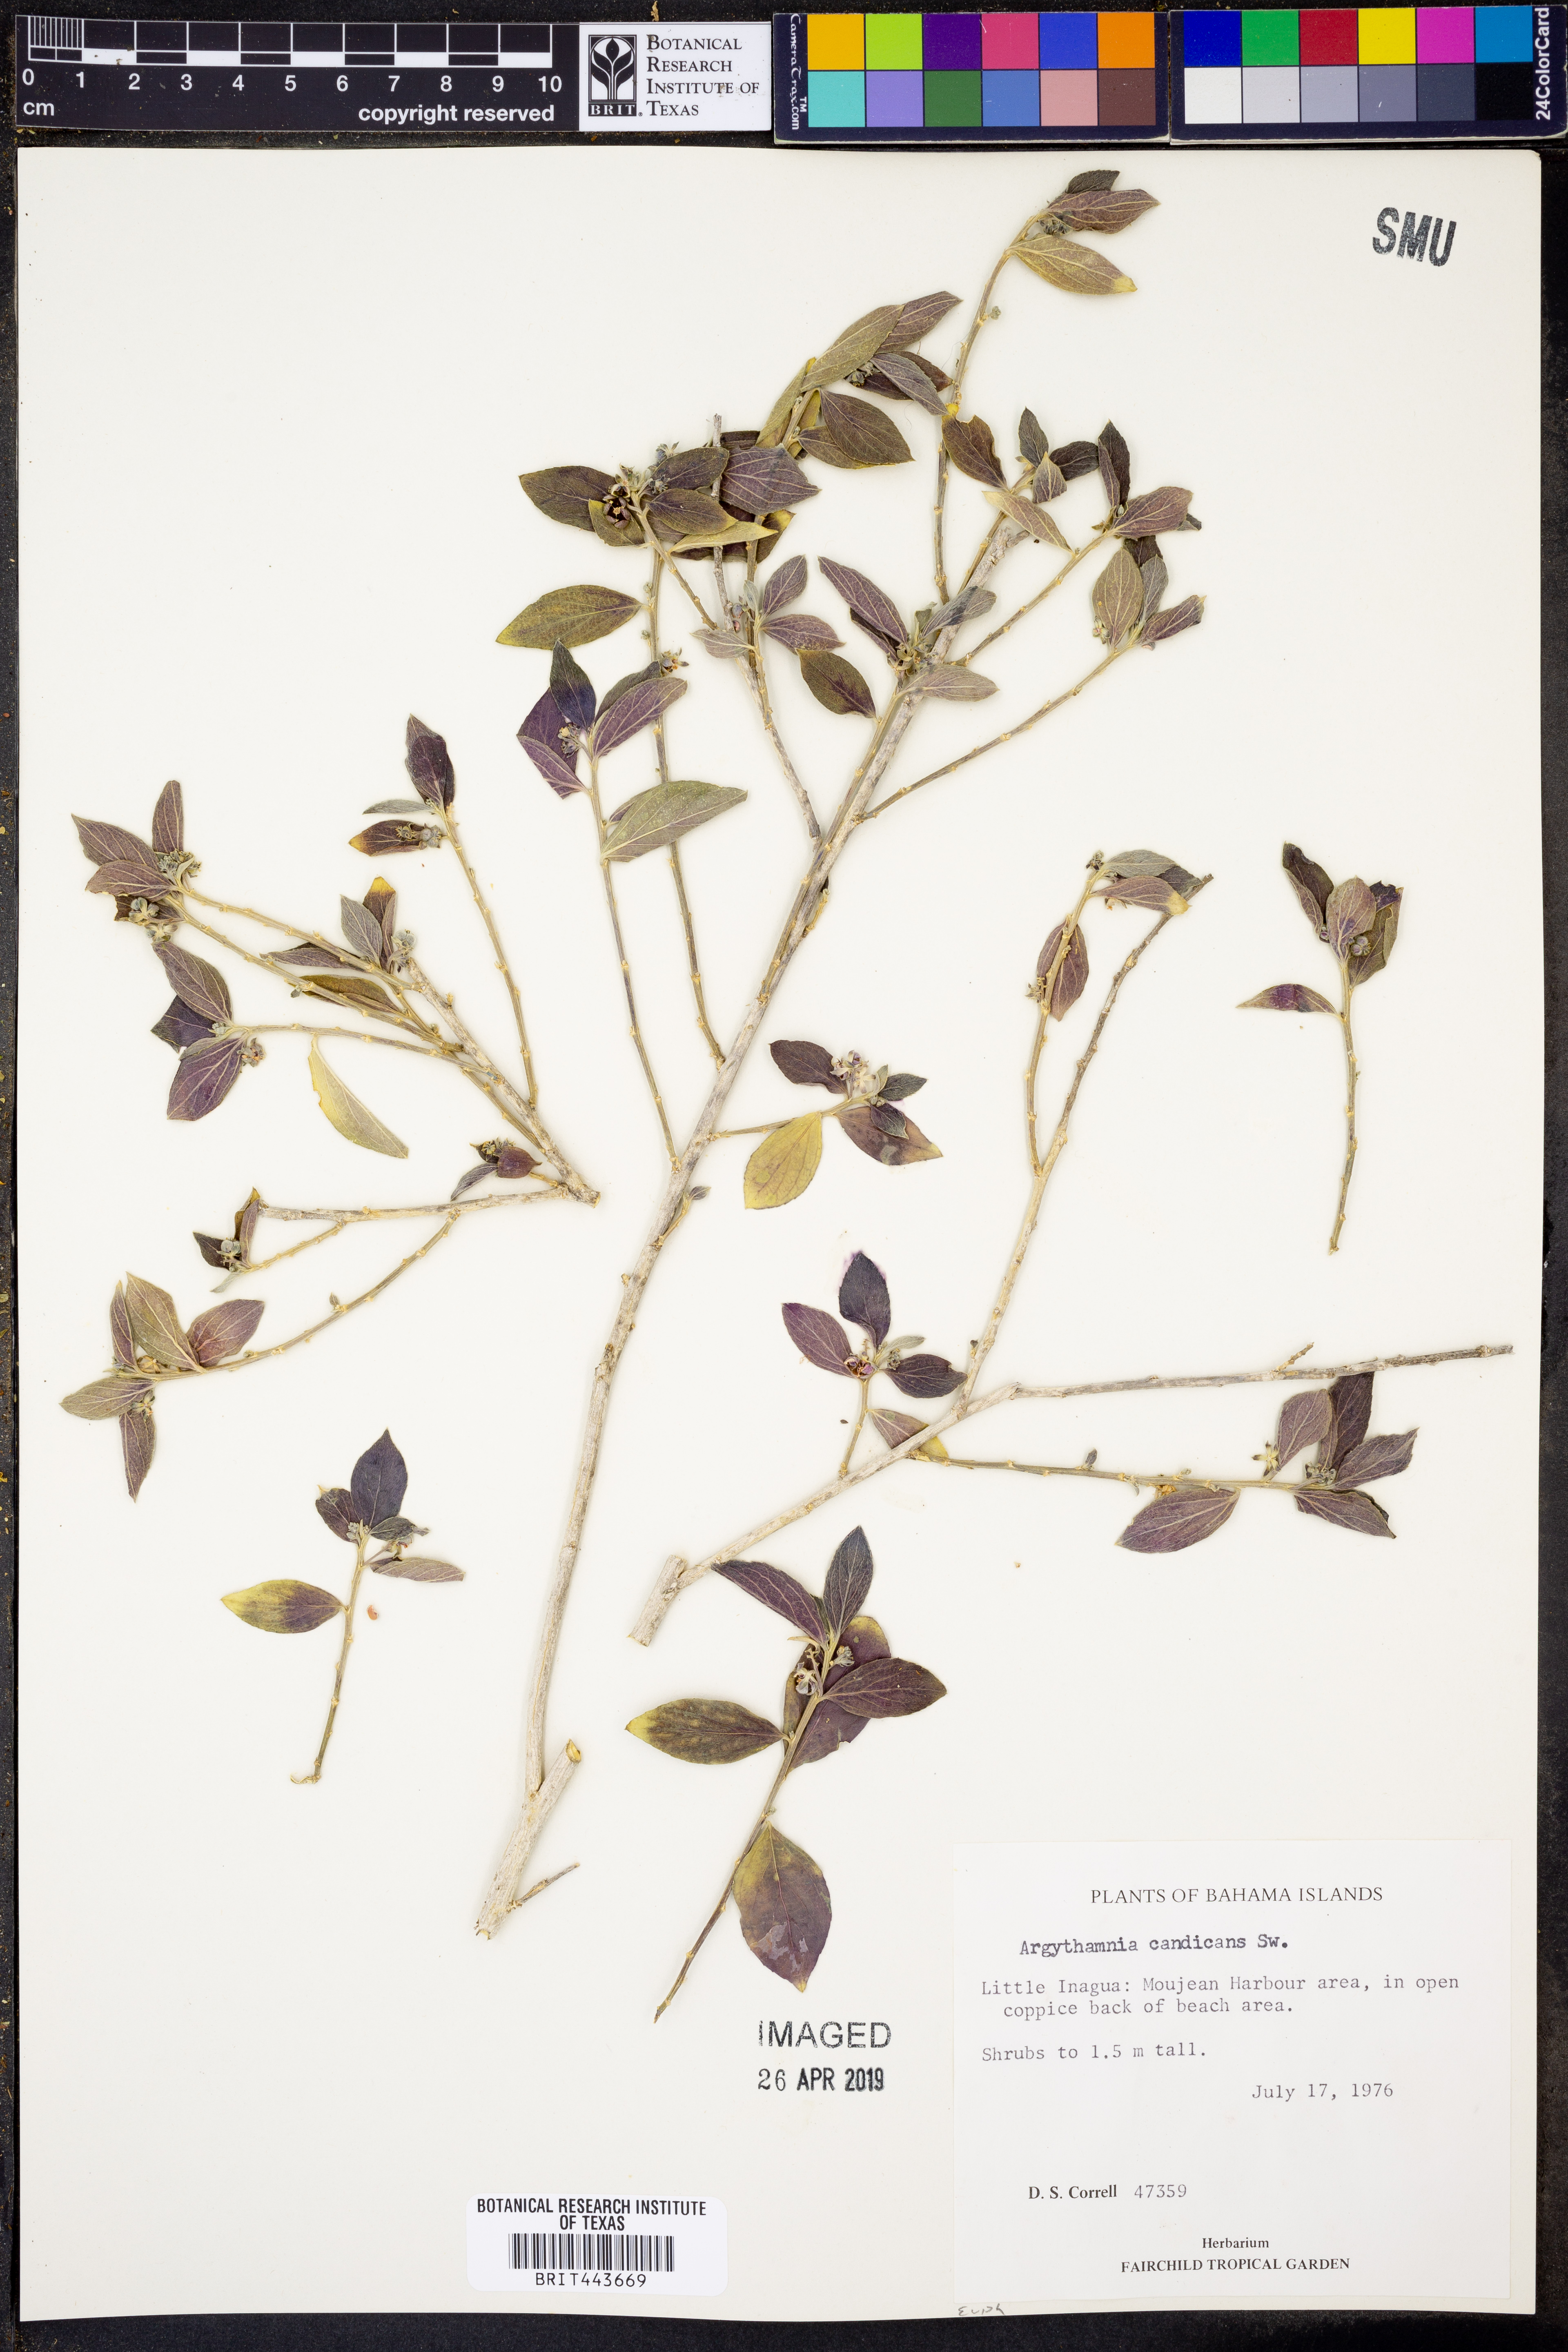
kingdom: Plantae
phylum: Tracheophyta
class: Magnoliopsida
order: Malpighiales
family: Euphorbiaceae
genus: Argythamnia
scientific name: Argythamnia candicans
